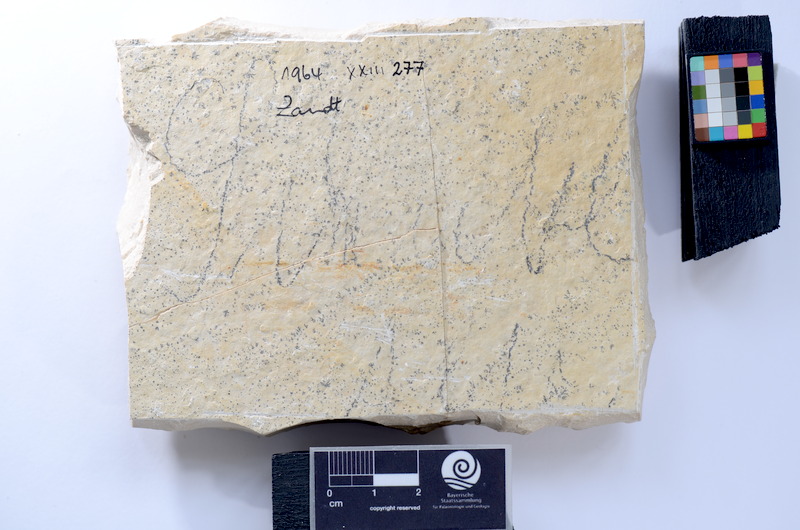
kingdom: Animalia
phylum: Chordata
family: Allothrissopidae
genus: Allothrissops
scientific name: Allothrissops
